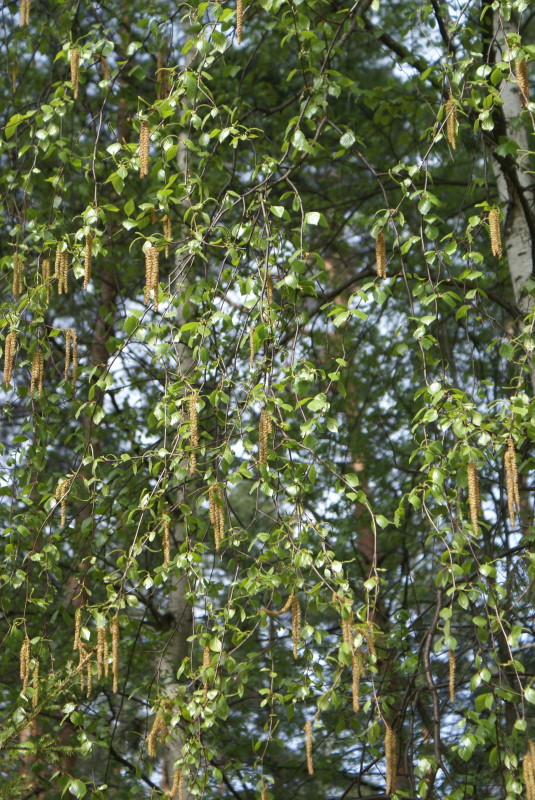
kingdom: Plantae
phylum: Tracheophyta
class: Magnoliopsida
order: Fagales
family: Betulaceae
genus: Betula
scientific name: Betula pendula
